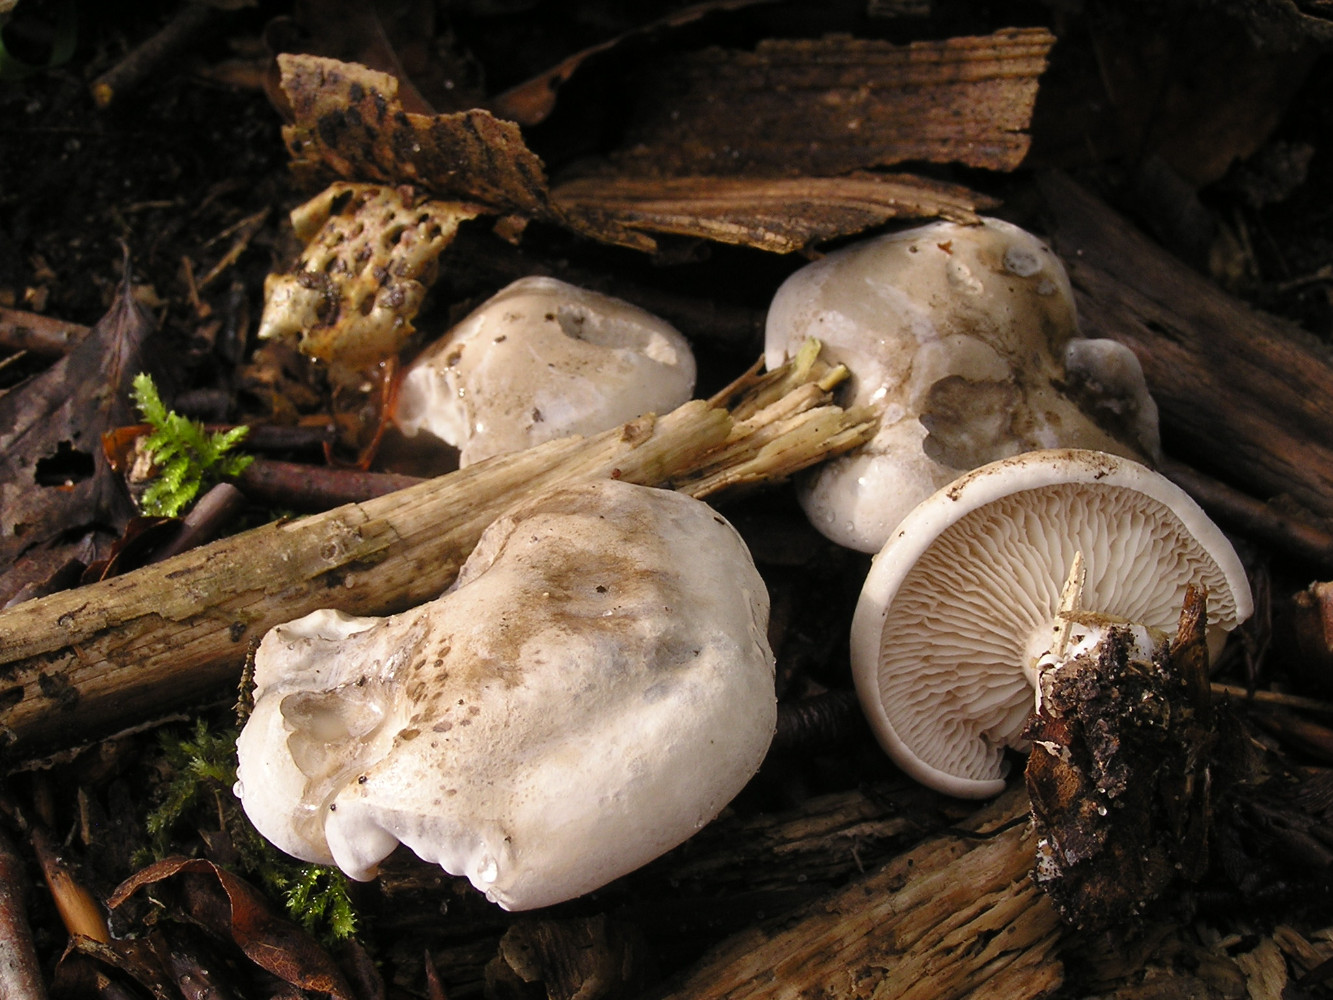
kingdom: Fungi
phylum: Basidiomycota
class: Agaricomycetes
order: Agaricales
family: Entolomataceae
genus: Clitopilus
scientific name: Clitopilus cystidiatus
